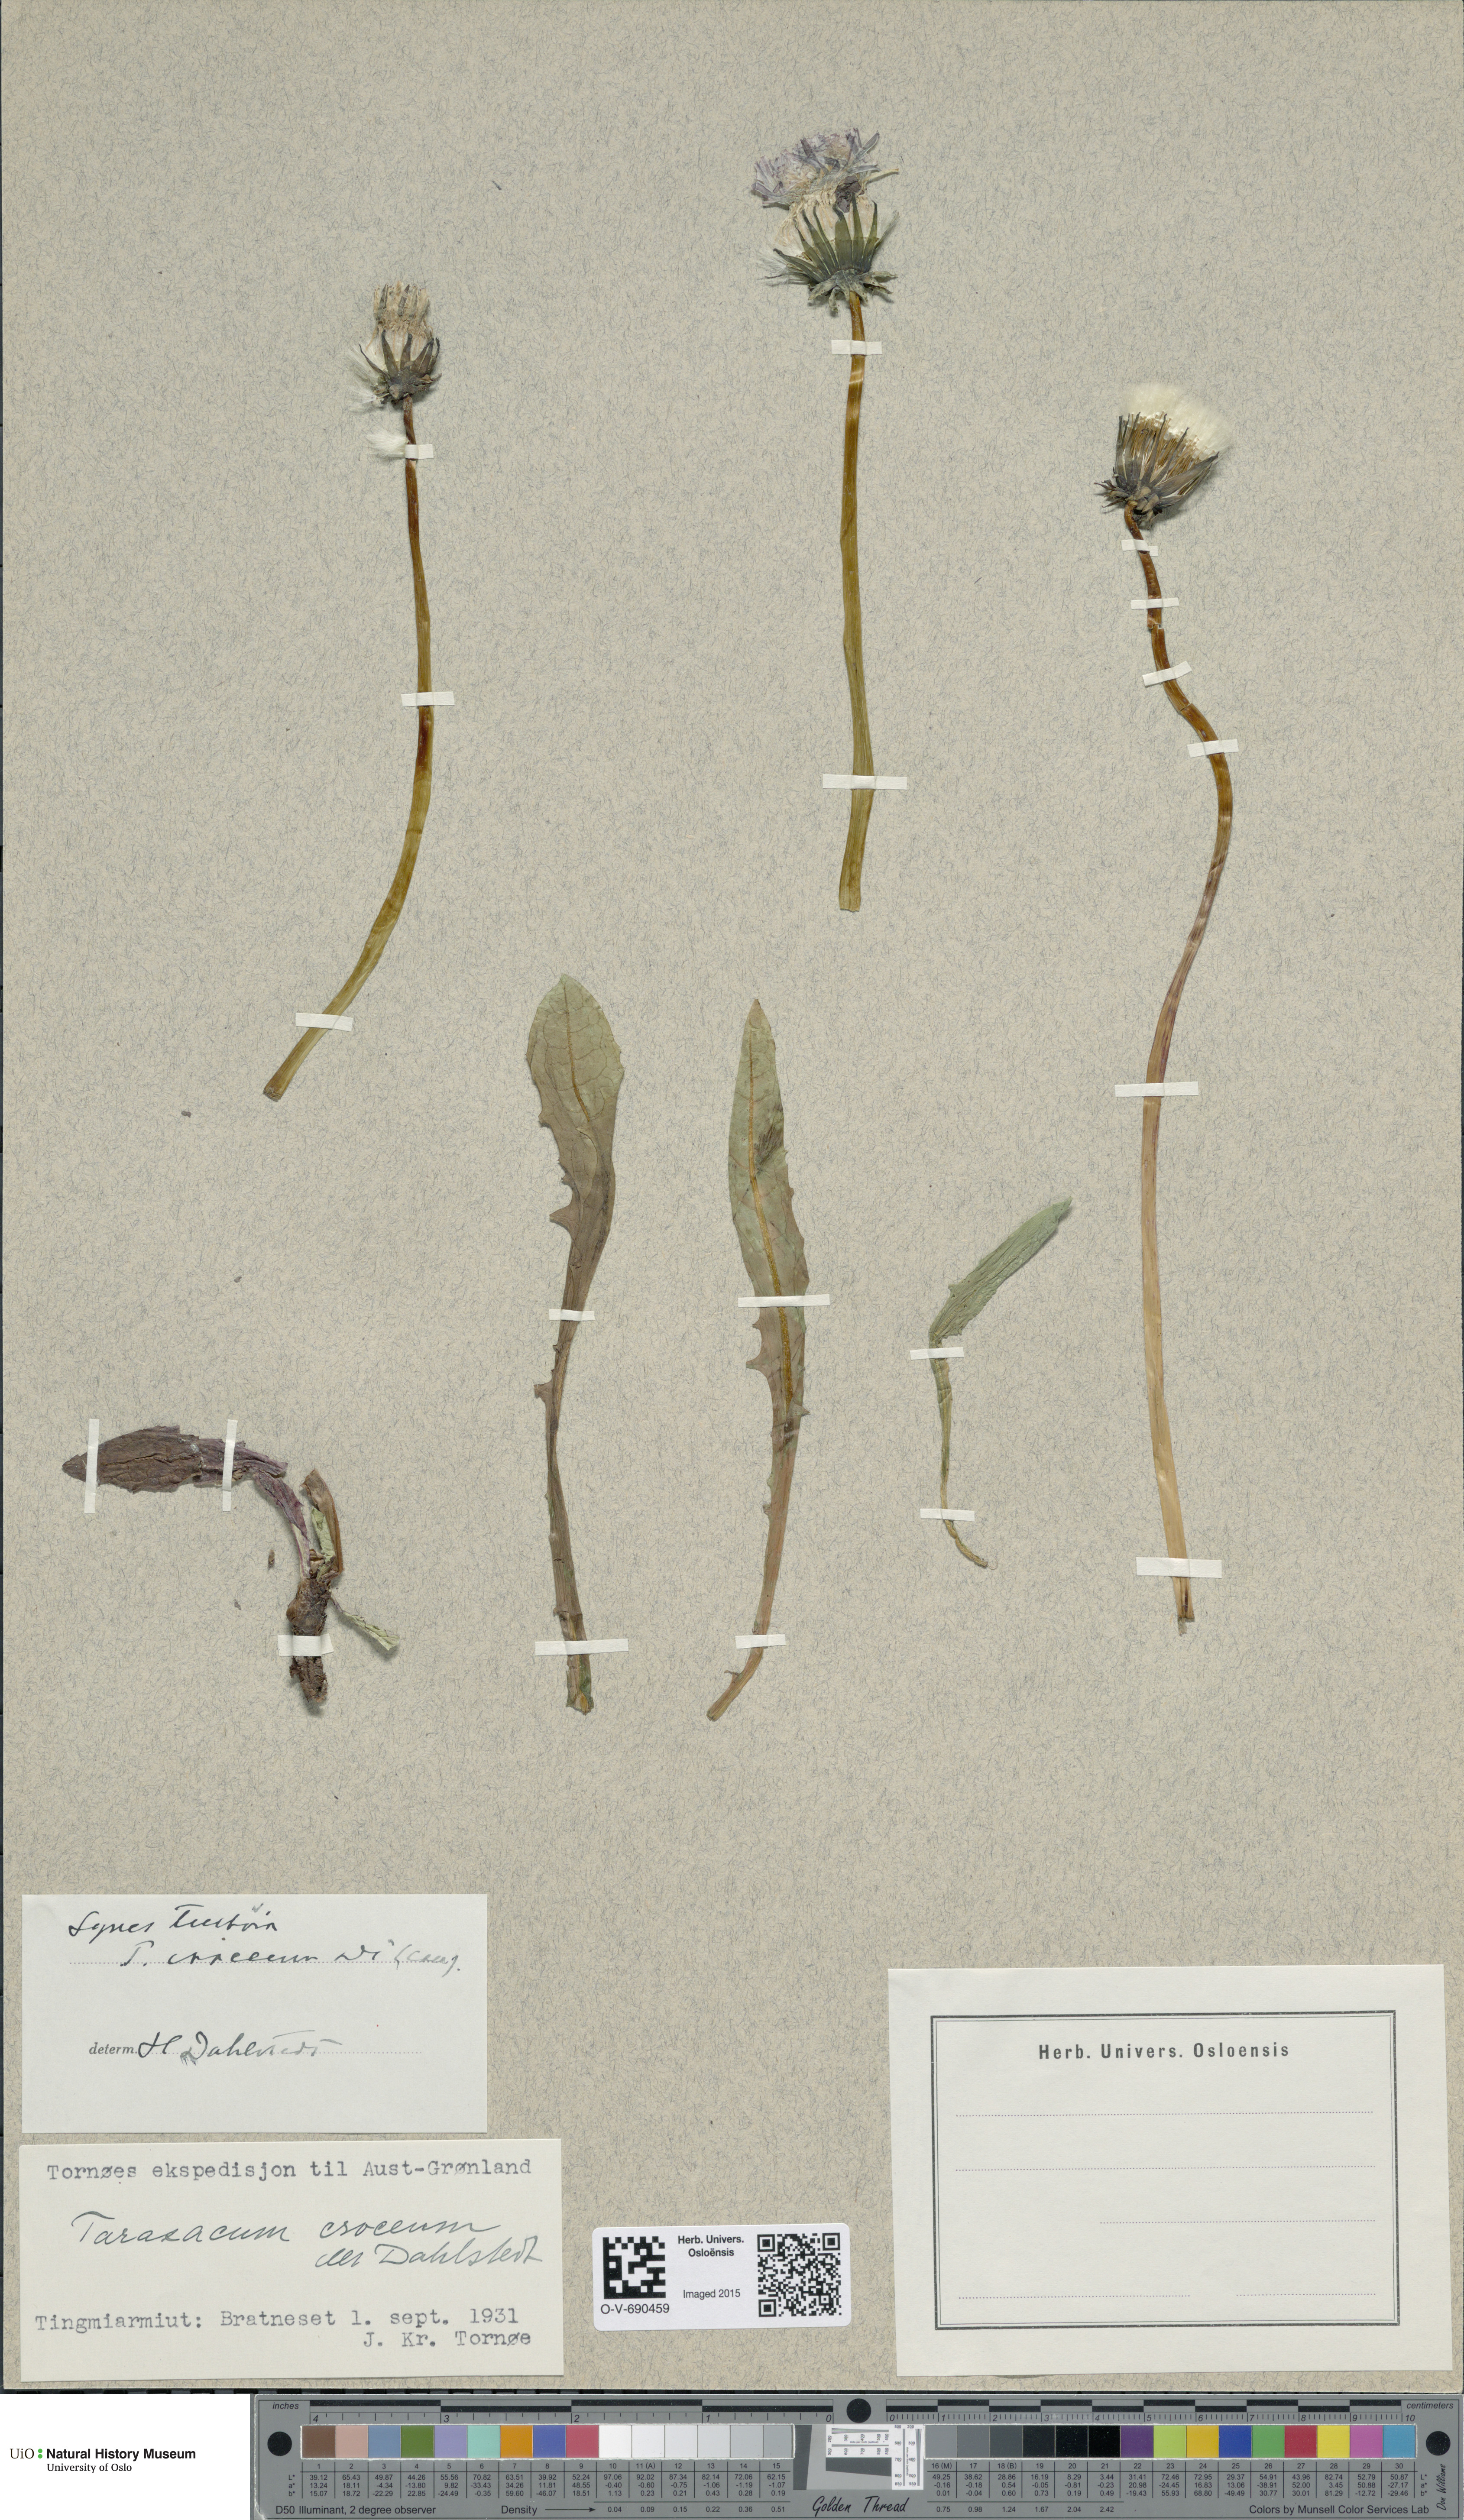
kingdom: Plantae
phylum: Tracheophyta
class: Magnoliopsida
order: Asterales
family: Asteraceae
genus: Taraxacum
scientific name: Taraxacum croceum
